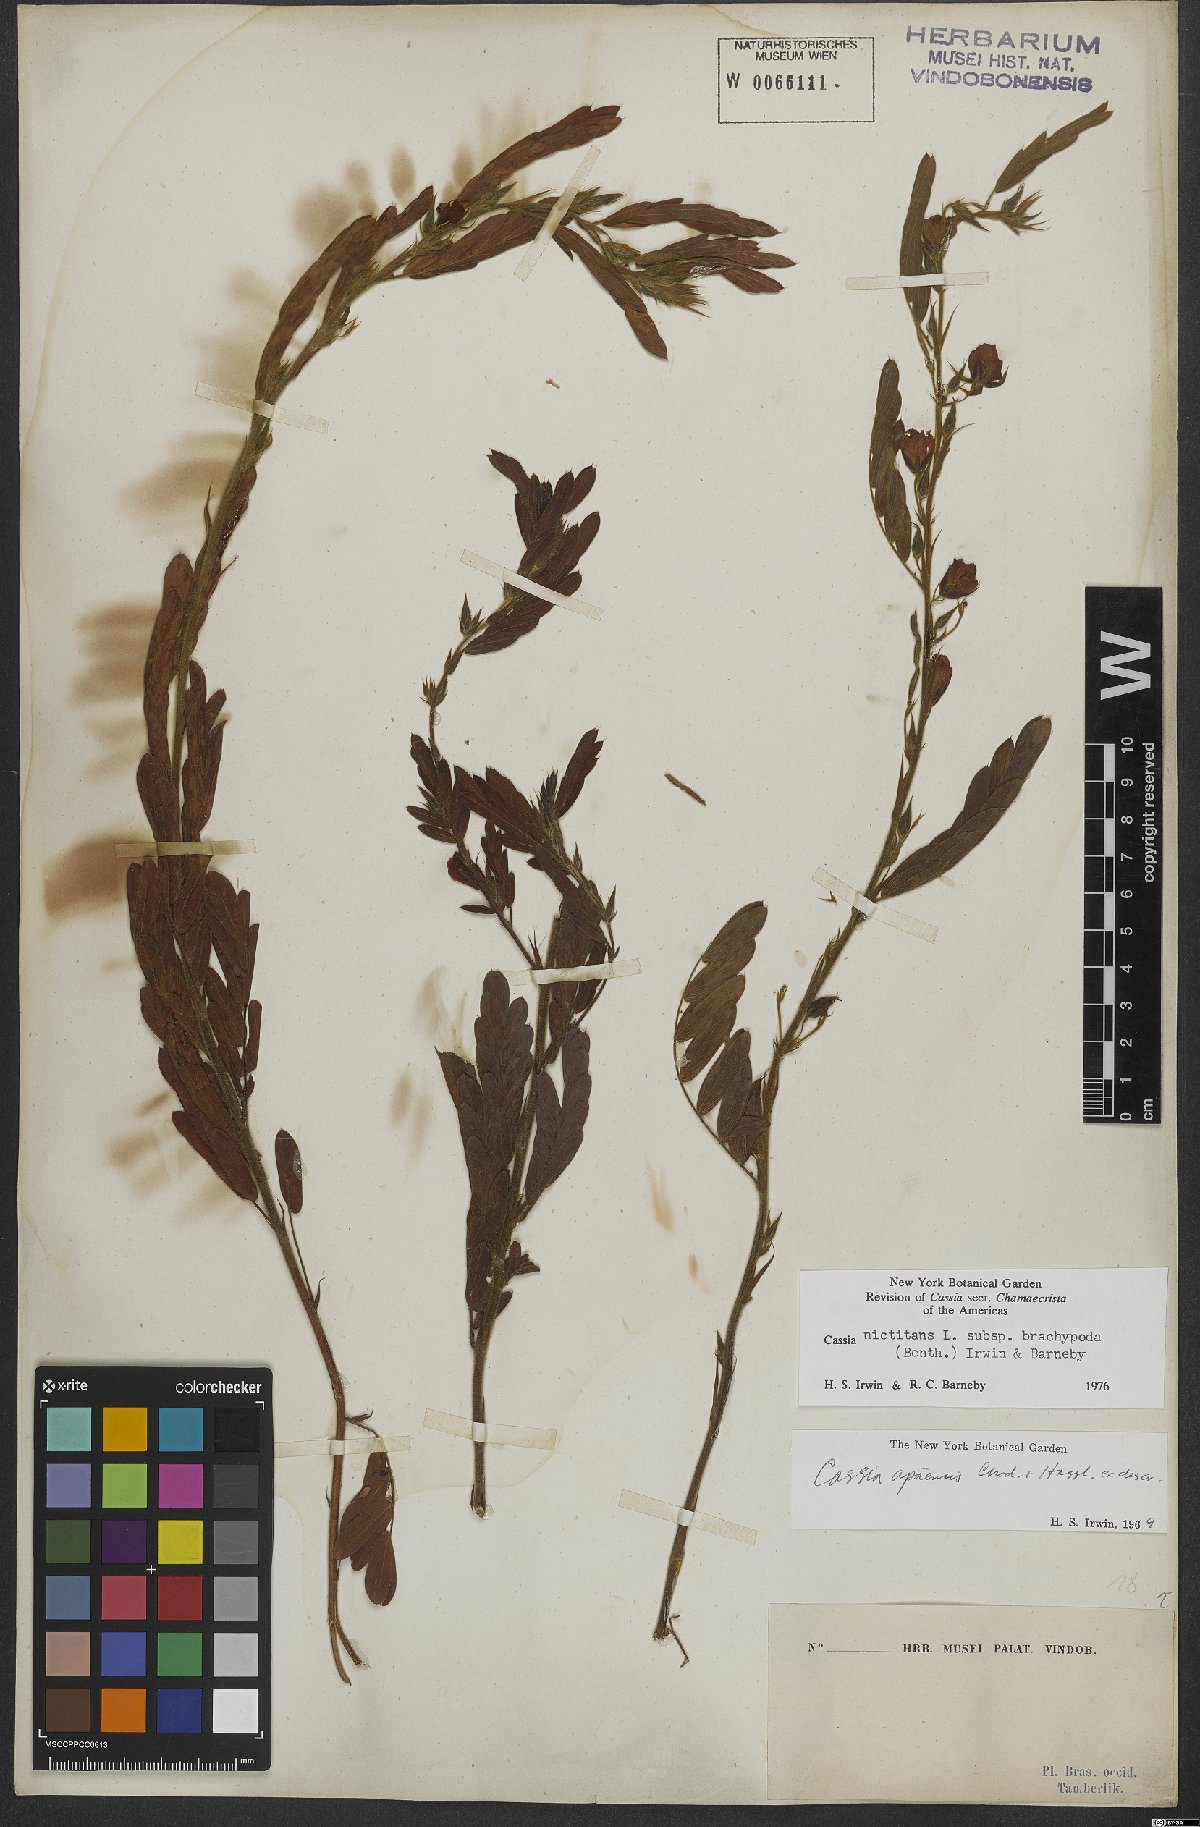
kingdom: Plantae
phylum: Tracheophyta
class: Magnoliopsida
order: Fabales
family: Fabaceae
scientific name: Fabaceae
